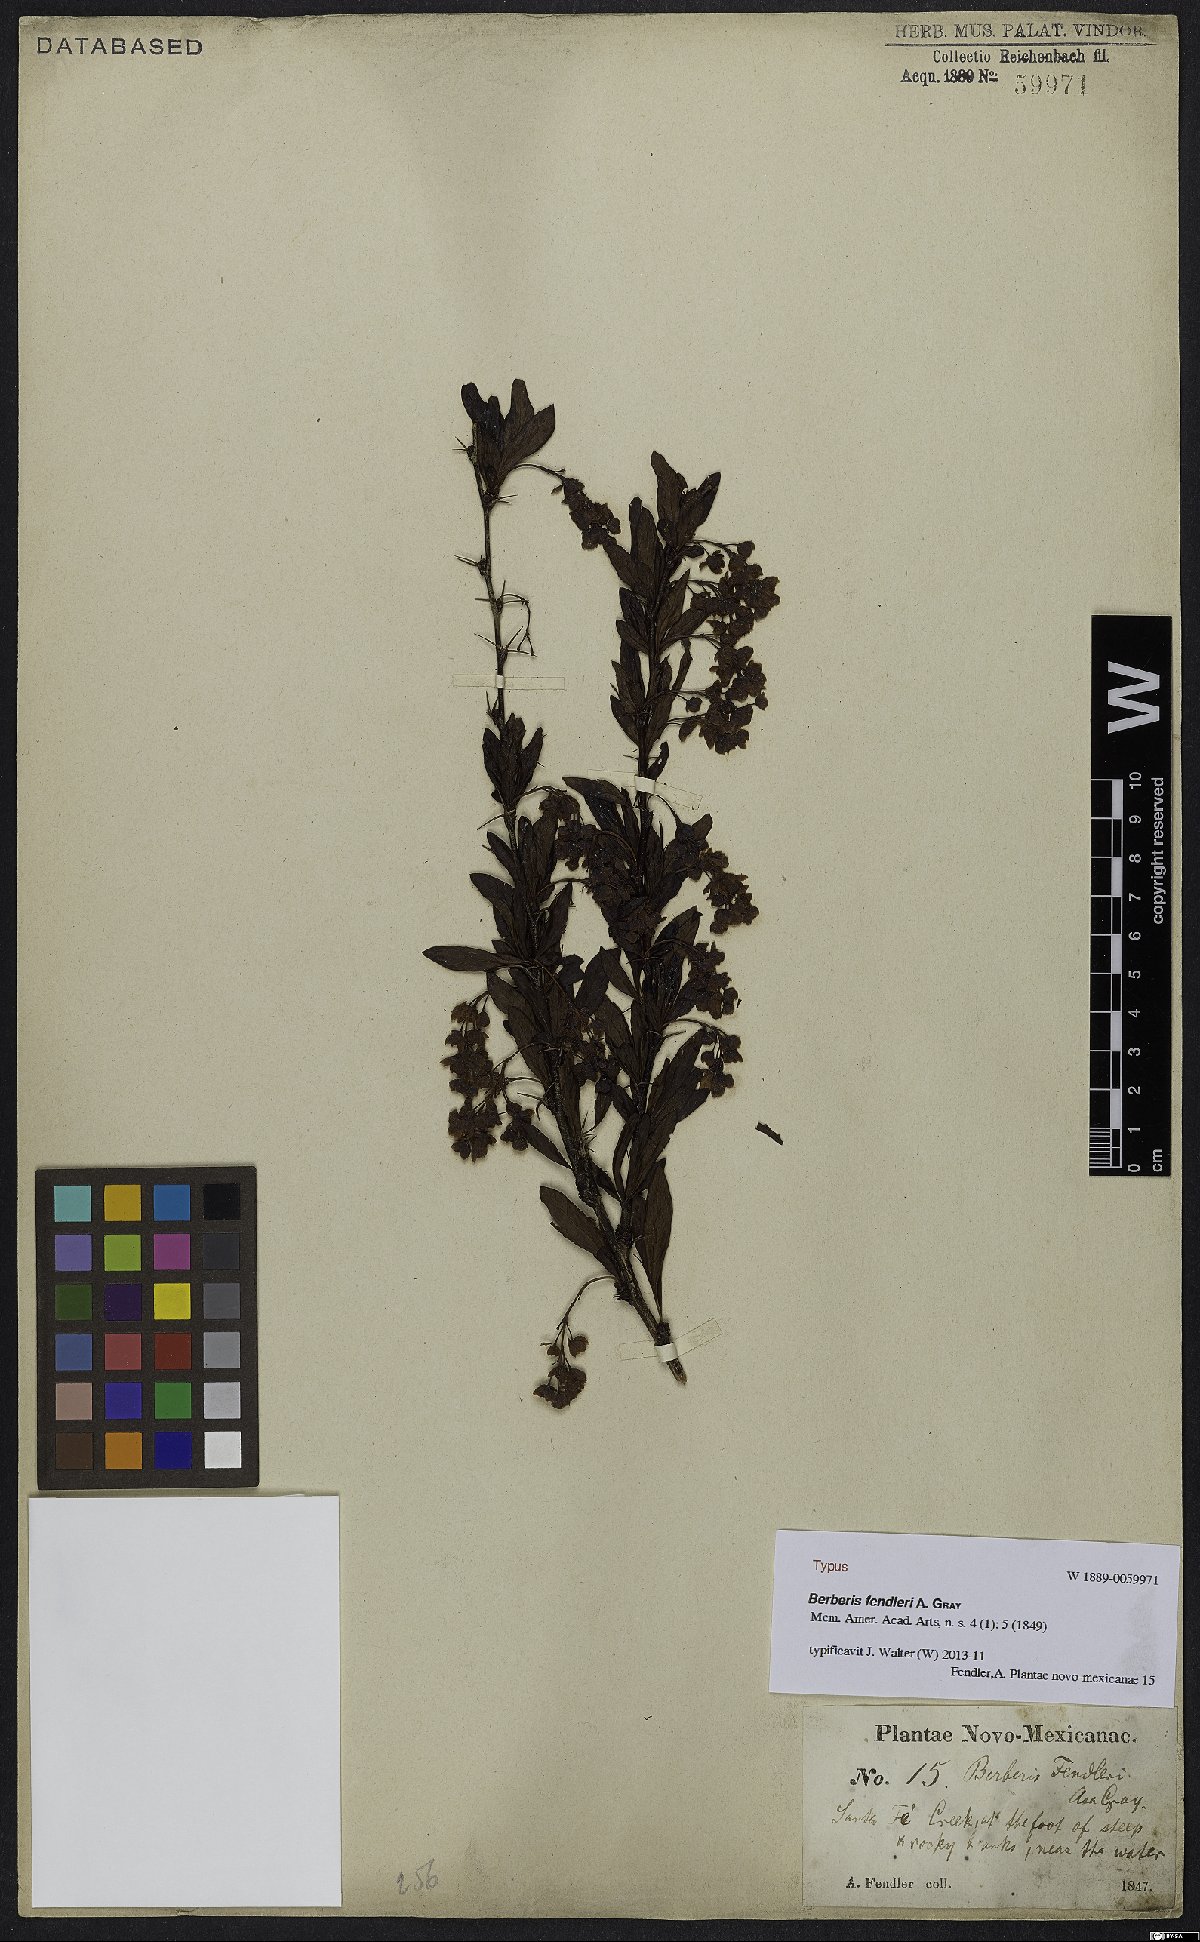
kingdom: Plantae
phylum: Tracheophyta
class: Magnoliopsida
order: Ranunculales
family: Berberidaceae
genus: Berberis
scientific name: Berberis fendleri
